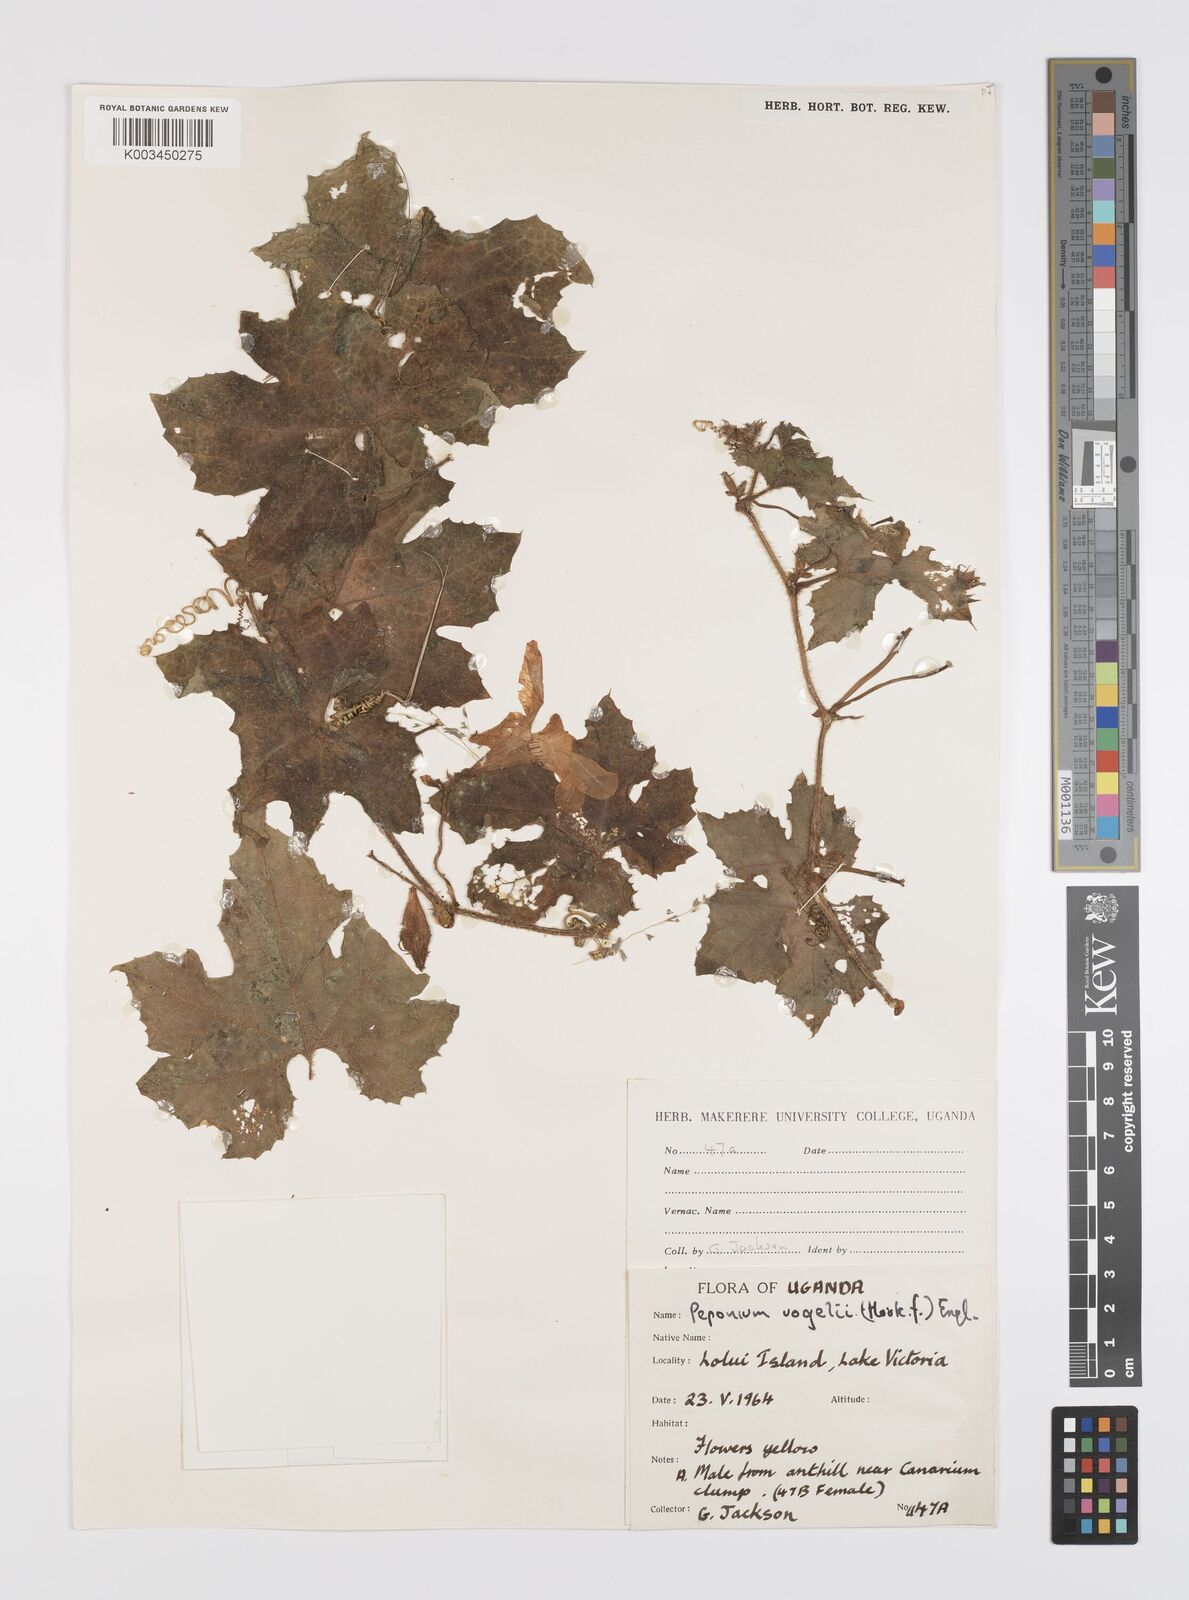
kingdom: Plantae
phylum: Tracheophyta
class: Magnoliopsida
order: Cucurbitales
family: Cucurbitaceae
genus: Peponium
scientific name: Peponium vogelii
